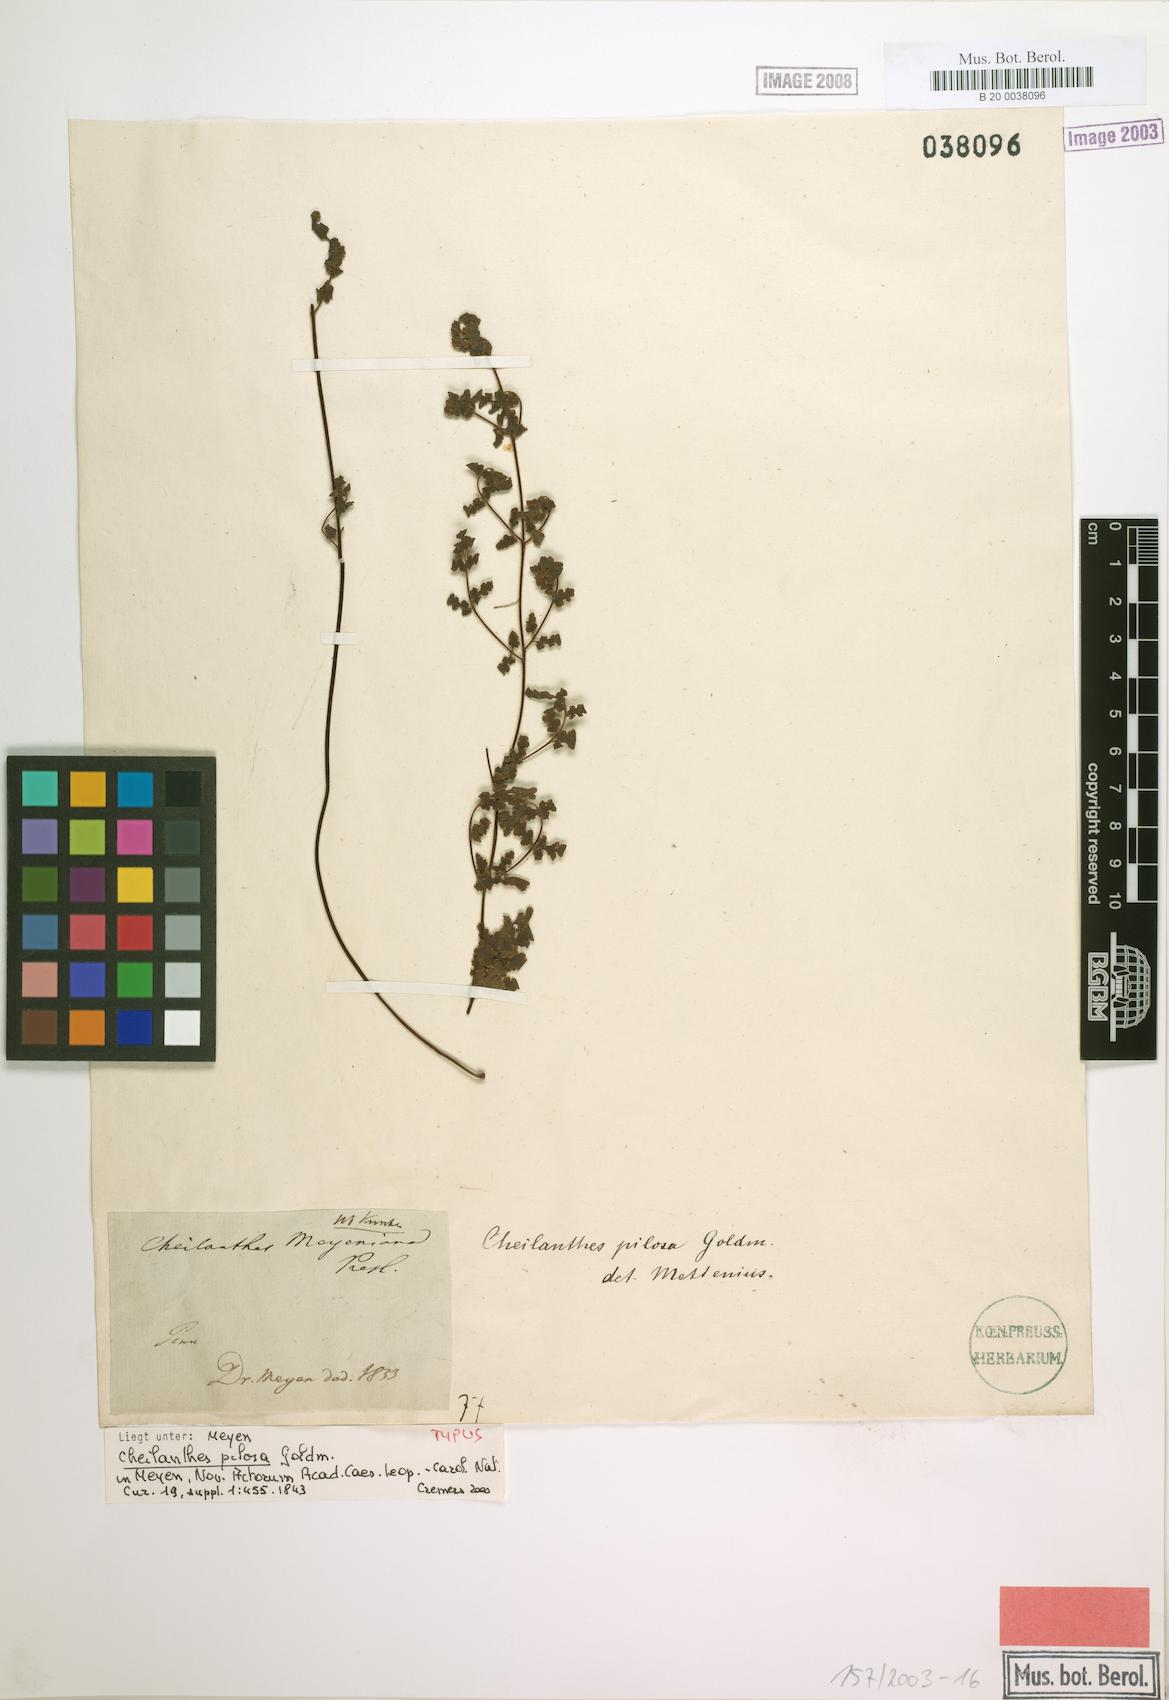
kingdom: Plantae
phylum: Tracheophyta
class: Polypodiopsida
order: Polypodiales
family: Pteridaceae
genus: Cheilanthes
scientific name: Cheilanthes pilosa
